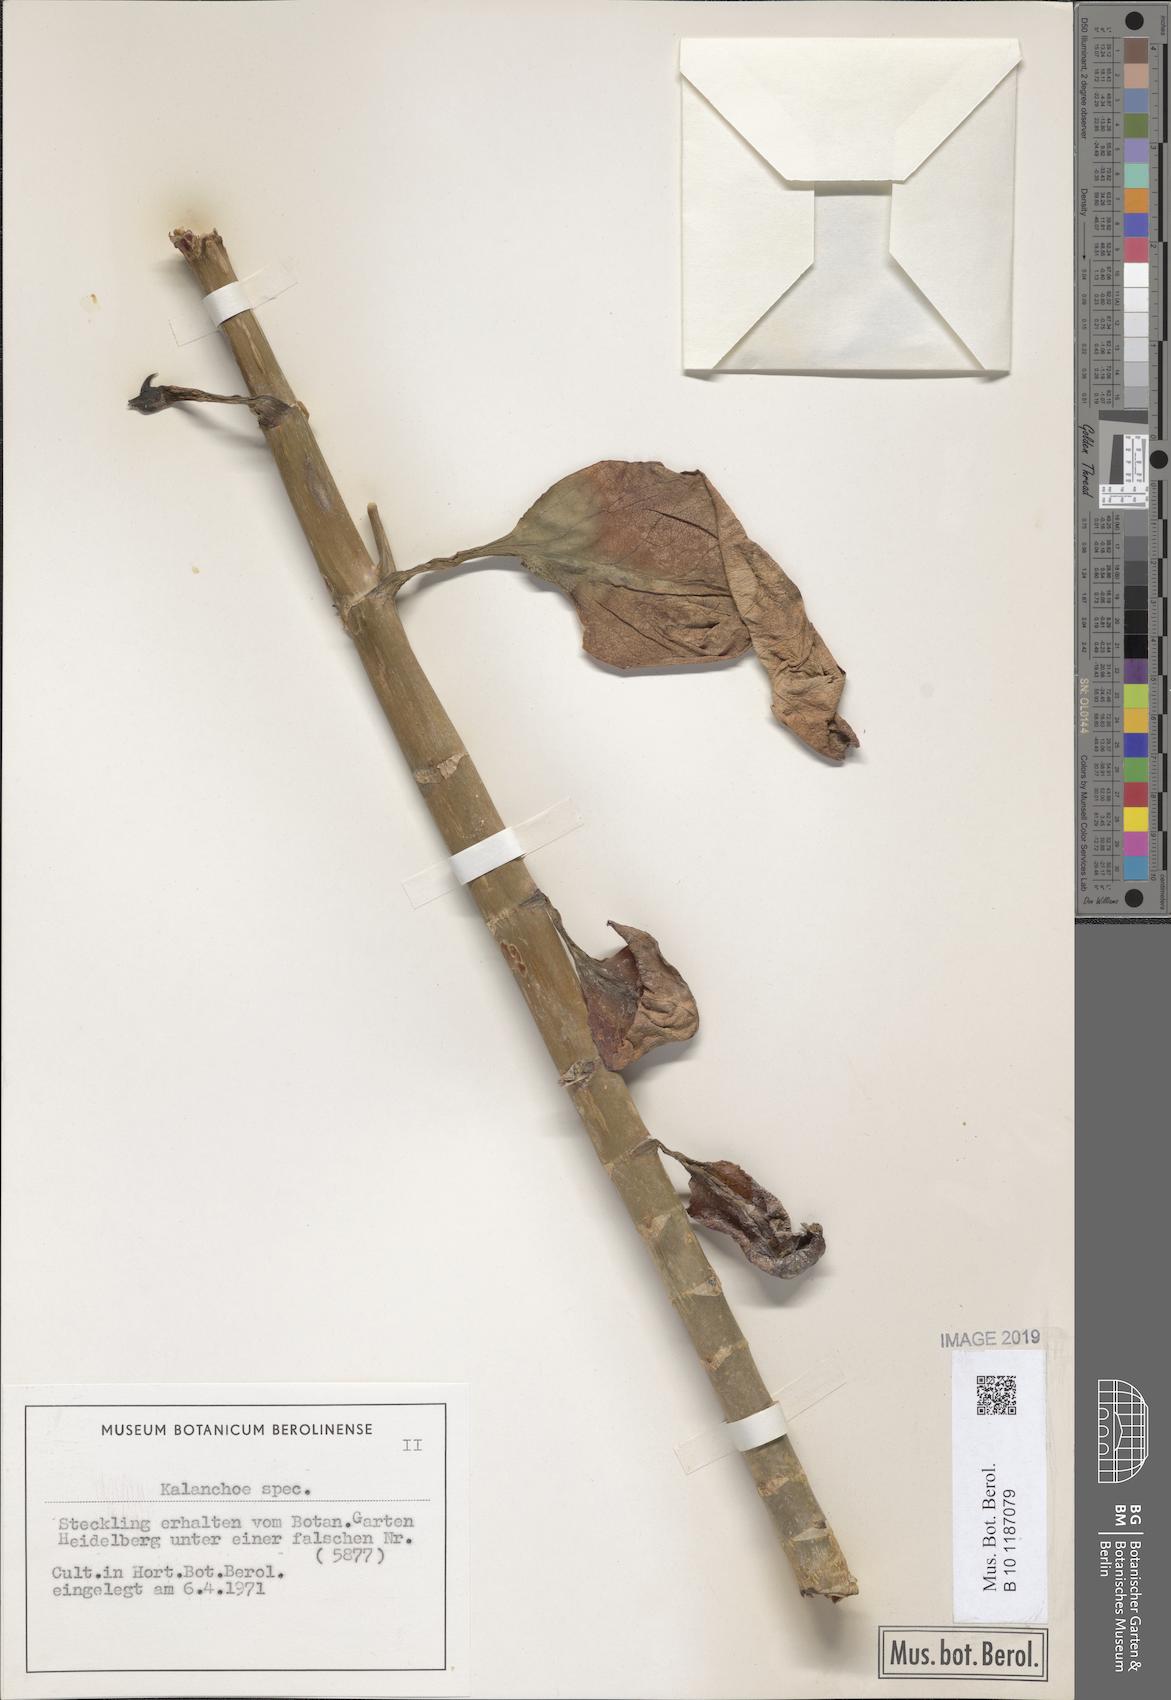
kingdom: Plantae
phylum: Tracheophyta
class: Magnoliopsida
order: Saxifragales
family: Crassulaceae
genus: Kalanchoe
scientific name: Kalanchoe
